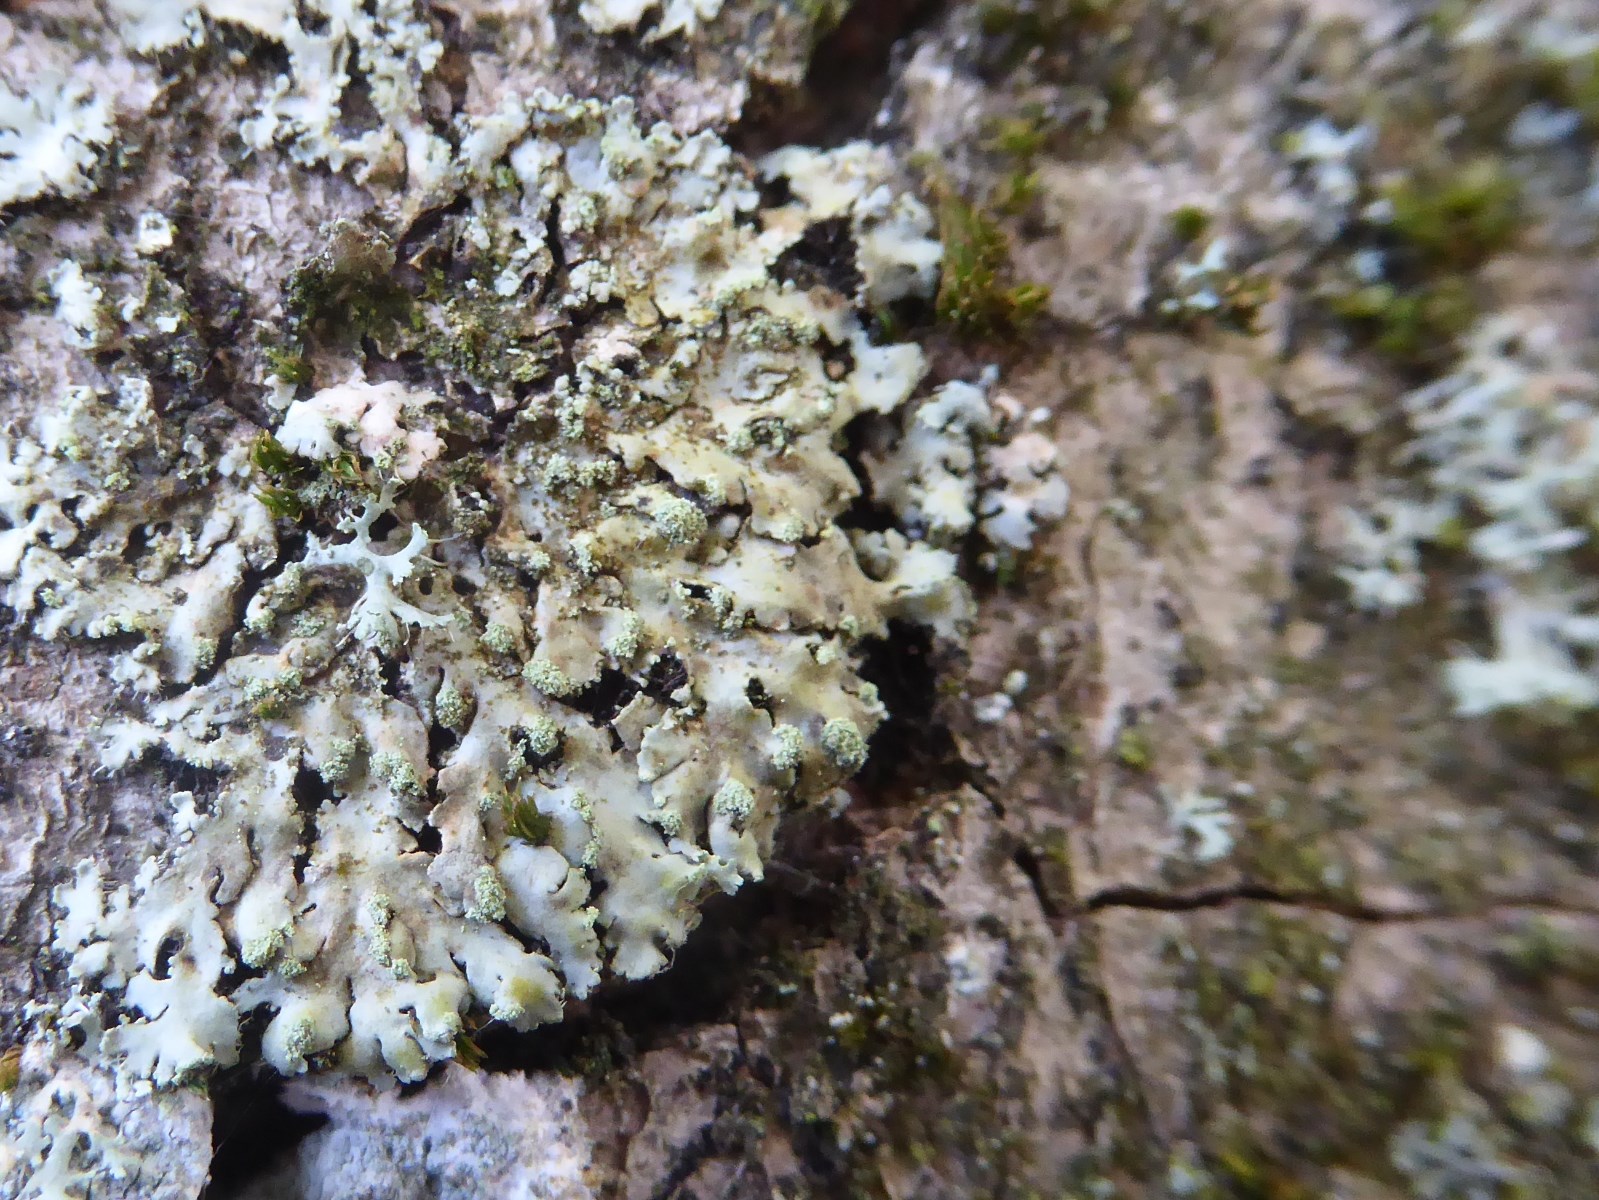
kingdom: Fungi
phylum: Ascomycota
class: Lecanoromycetes
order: Caliciales
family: Physciaceae
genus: Phaeophyscia
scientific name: Phaeophyscia orbicularis
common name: grågrøn rosetlav
